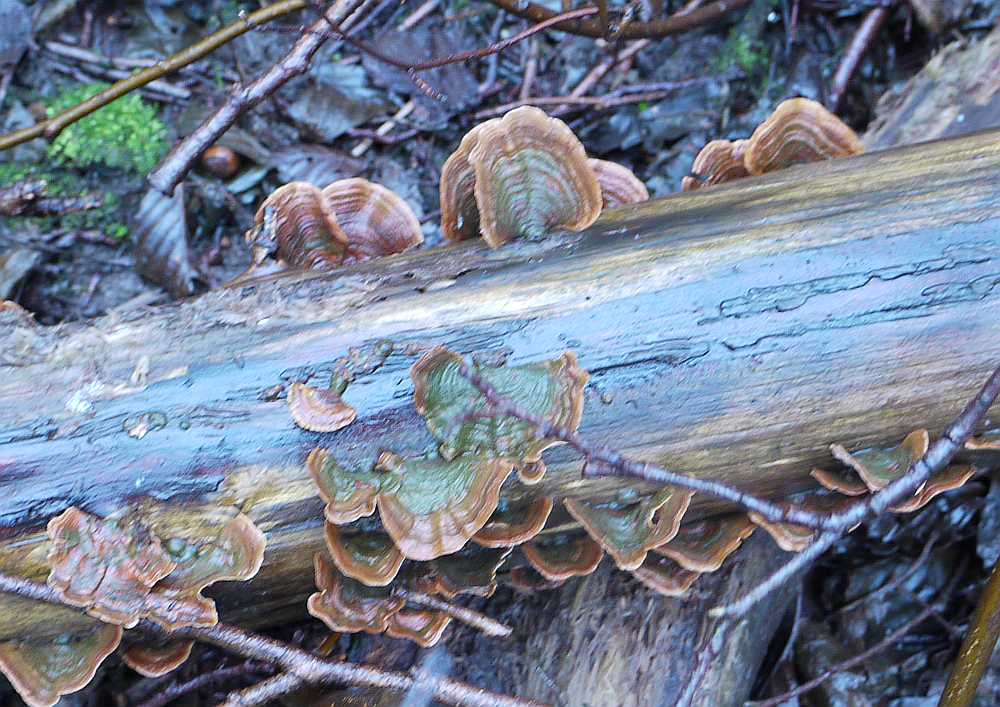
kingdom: Fungi
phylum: Basidiomycota
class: Agaricomycetes
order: Russulales
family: Stereaceae
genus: Stereum
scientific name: Stereum subtomentosum
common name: smuk lædersvamp
